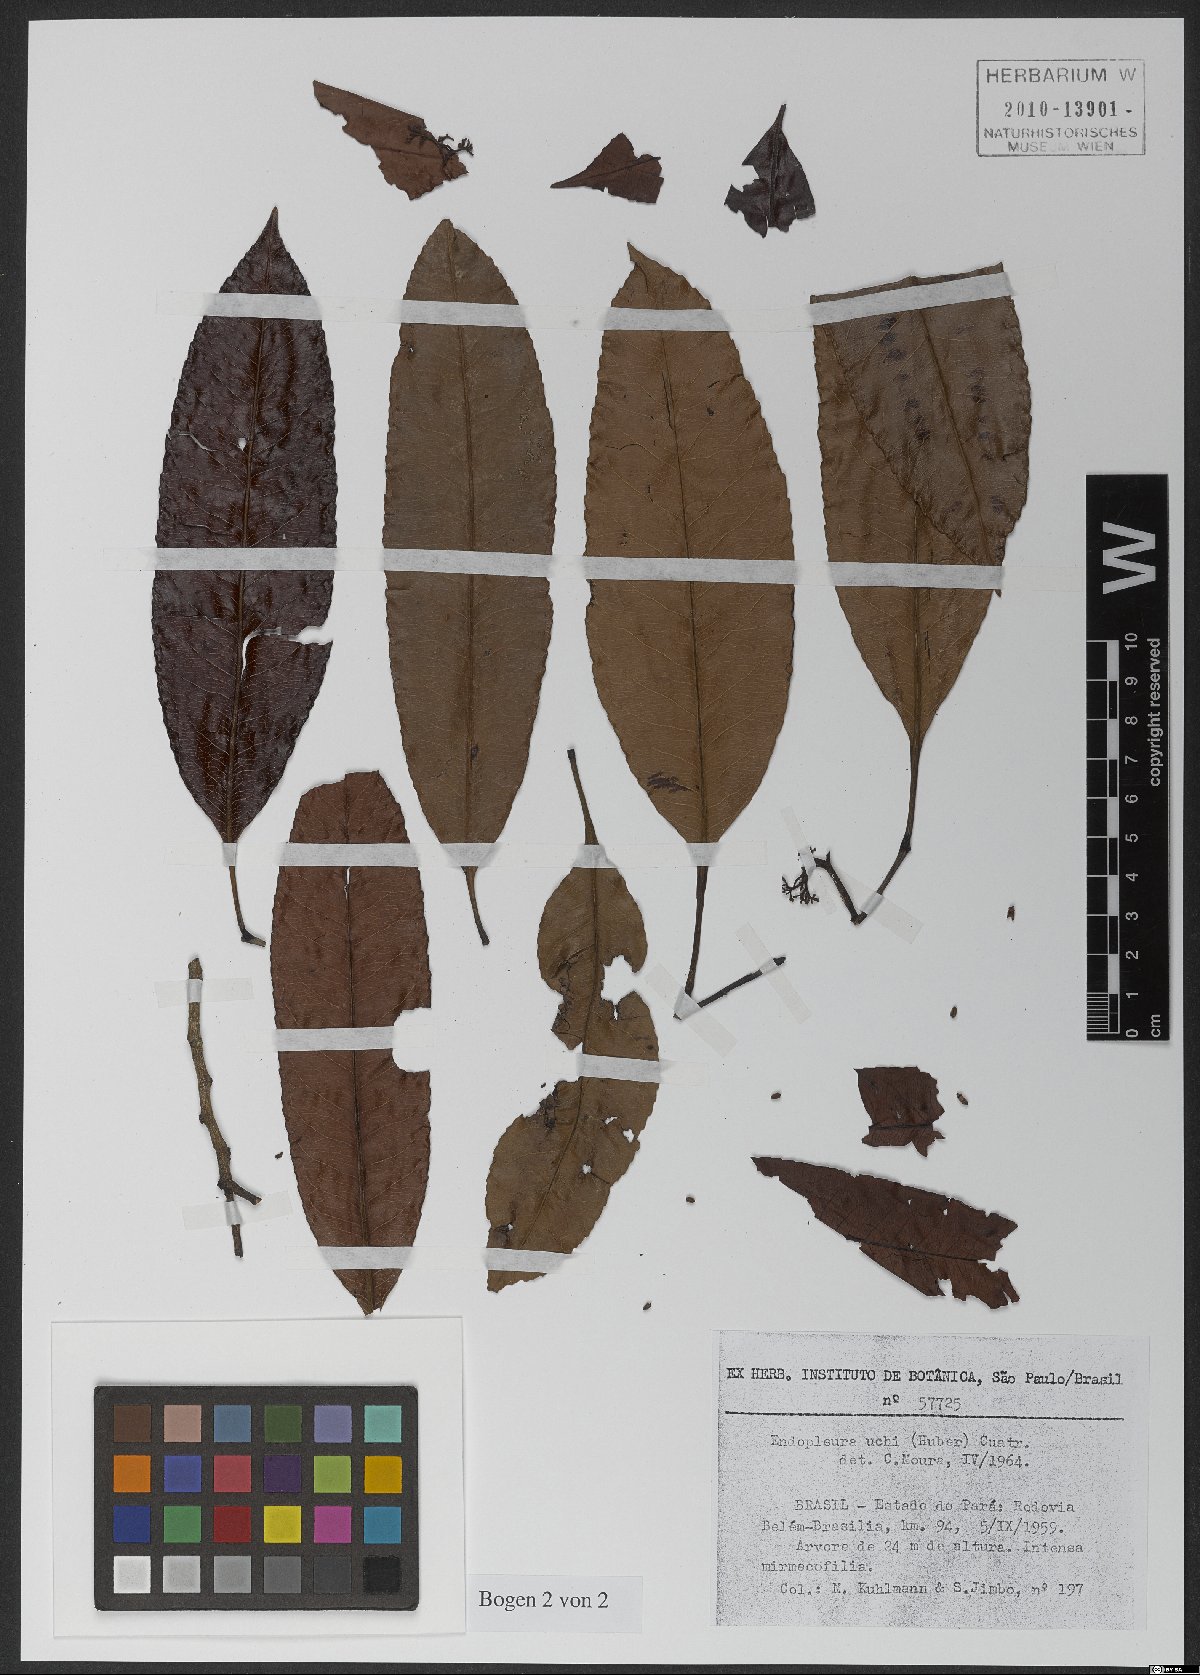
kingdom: Plantae
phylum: Tracheophyta
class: Magnoliopsida
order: Malpighiales
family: Humiriaceae
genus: Endopleura
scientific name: Endopleura uchi
